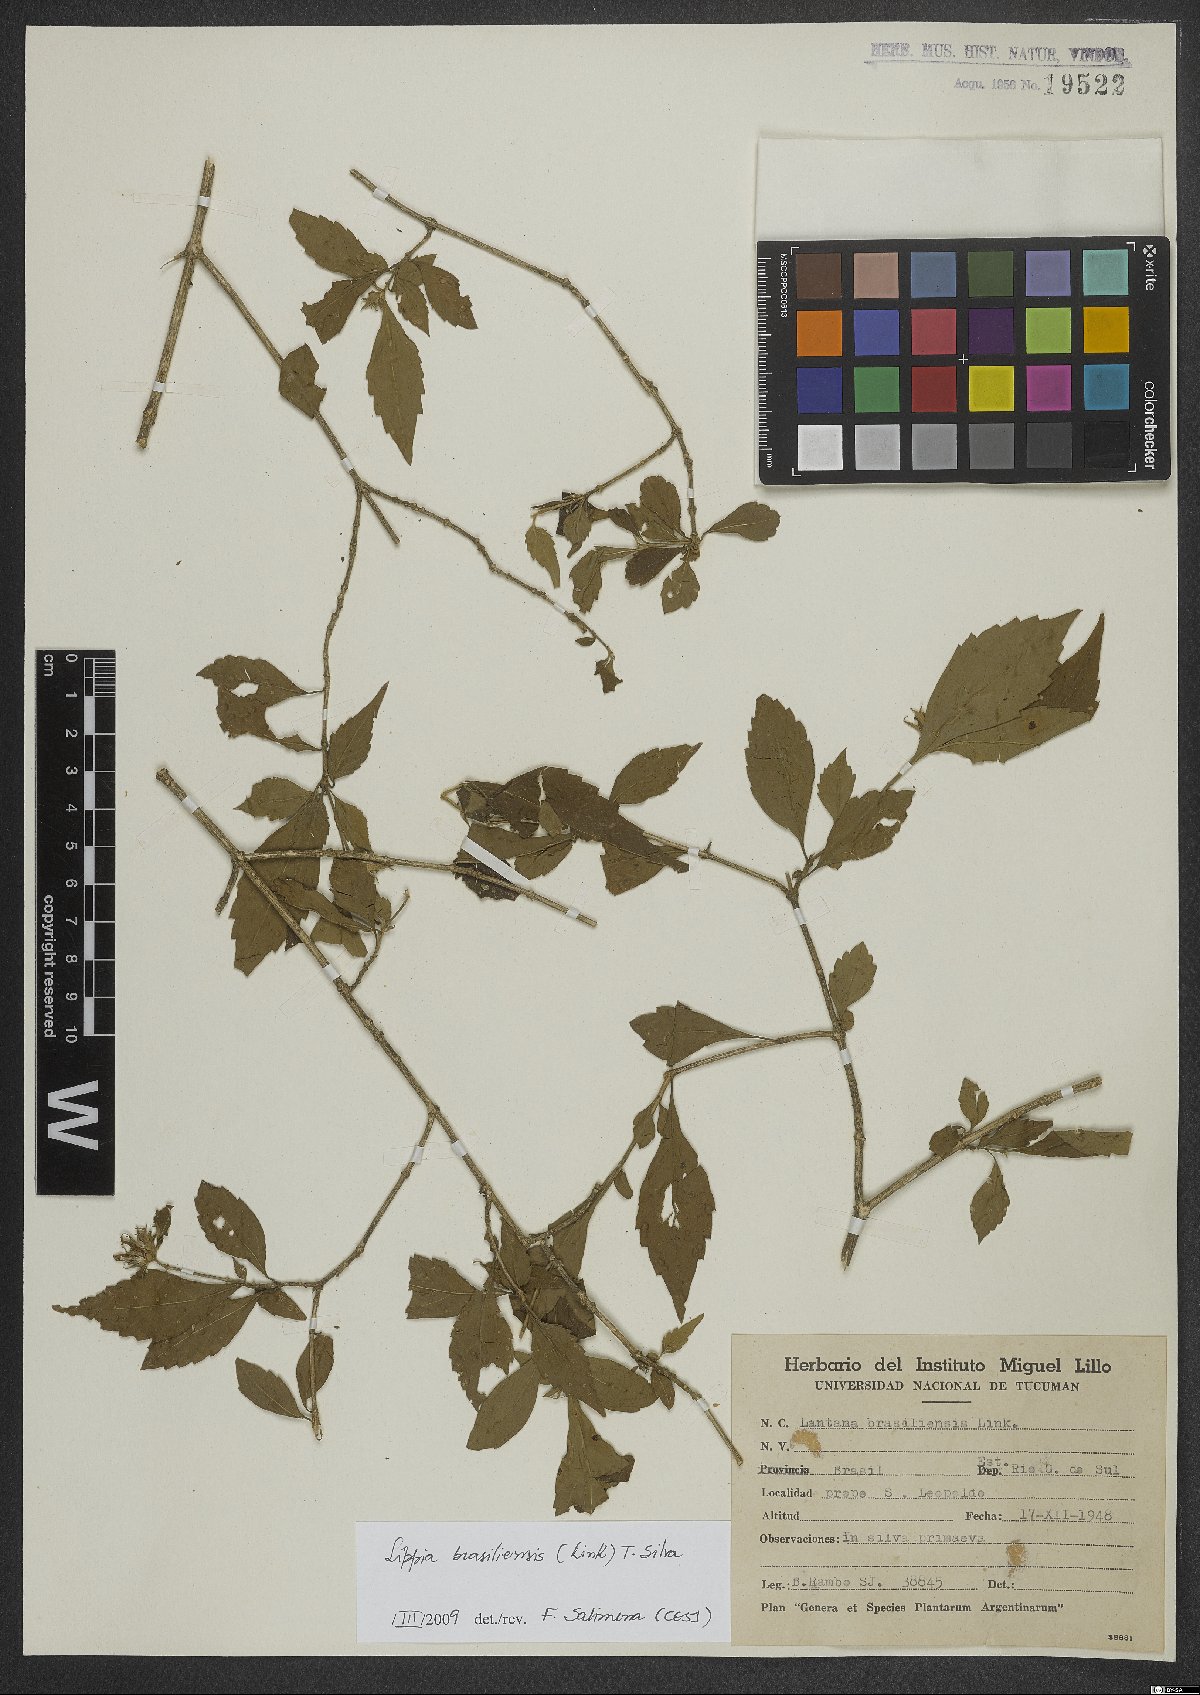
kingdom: Plantae
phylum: Tracheophyta
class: Magnoliopsida
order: Lamiales
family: Verbenaceae
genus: Lippia
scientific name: Lippia brasiliensis
